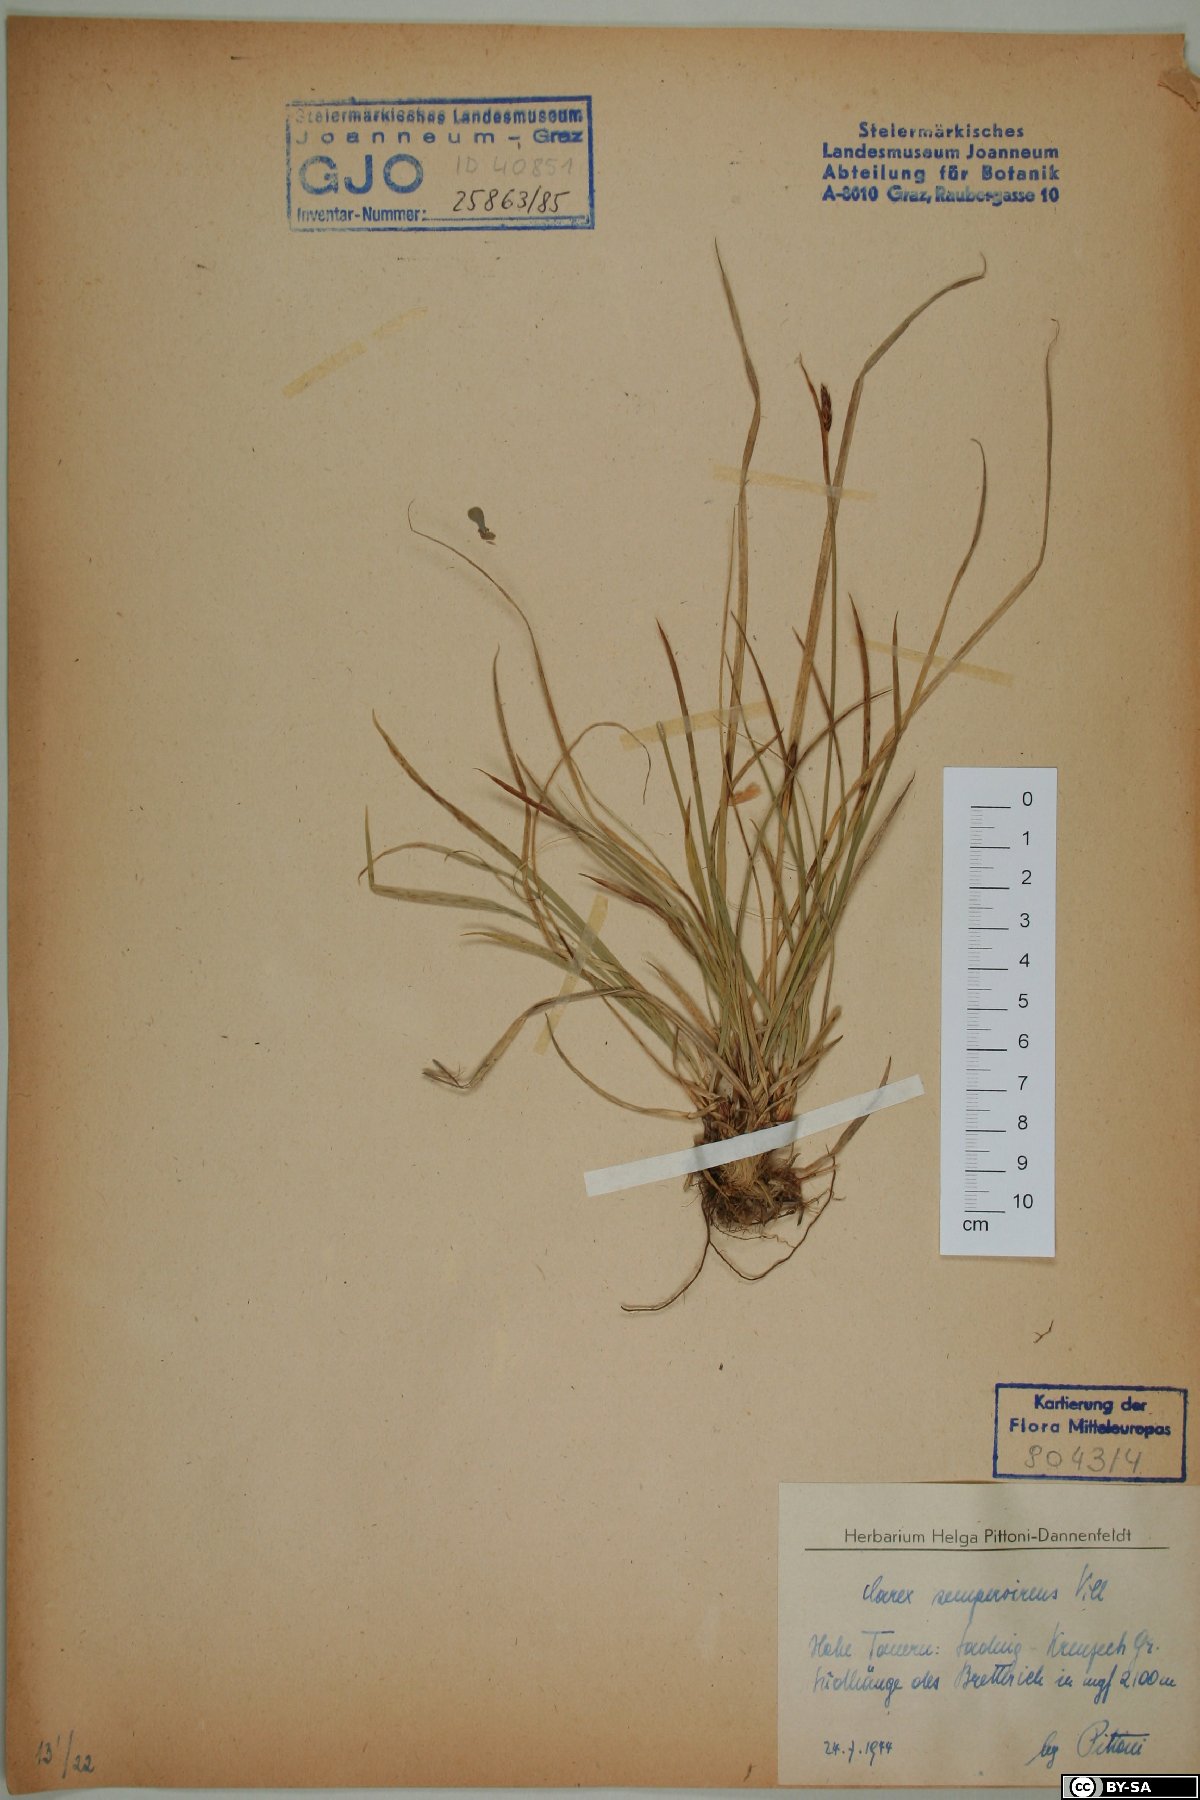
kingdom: Plantae
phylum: Tracheophyta
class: Liliopsida
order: Poales
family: Cyperaceae
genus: Carex
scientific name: Carex sempervirens
